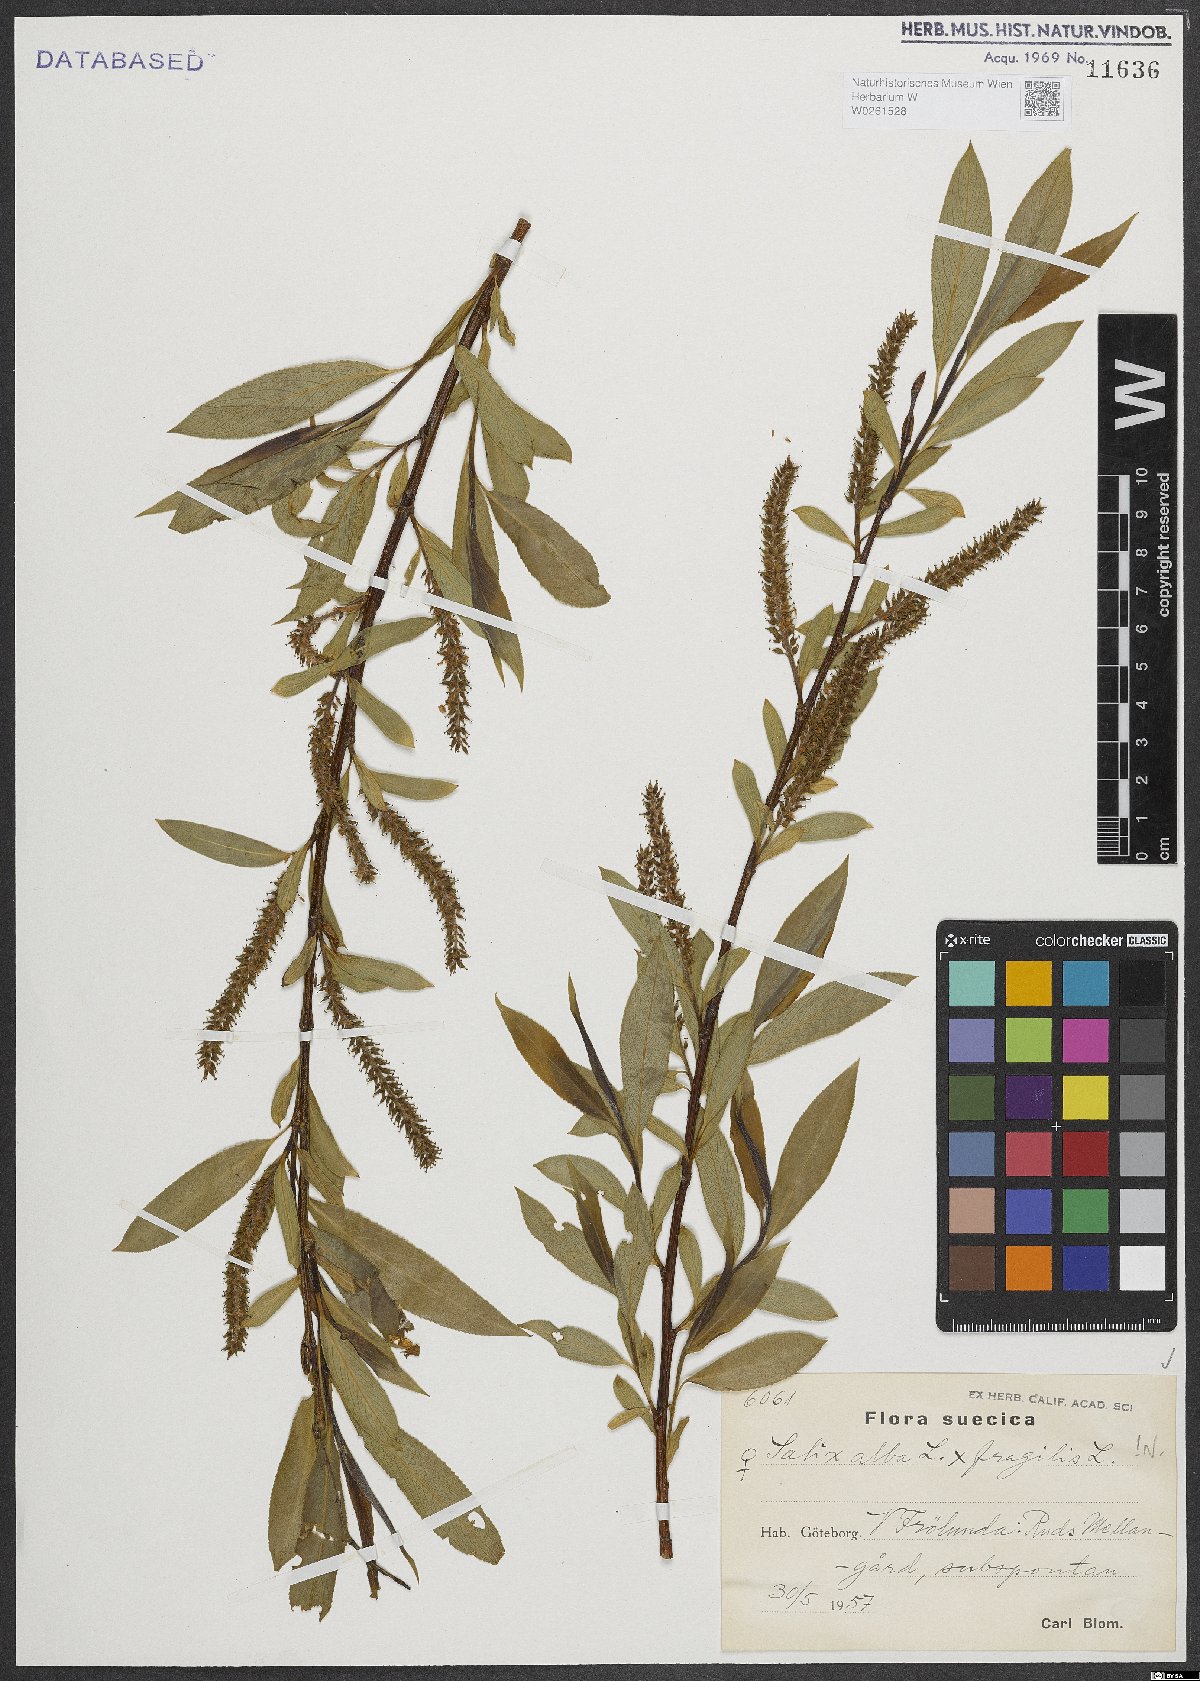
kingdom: Plantae
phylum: Tracheophyta
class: Magnoliopsida
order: Malpighiales
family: Salicaceae
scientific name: Salicaceae
